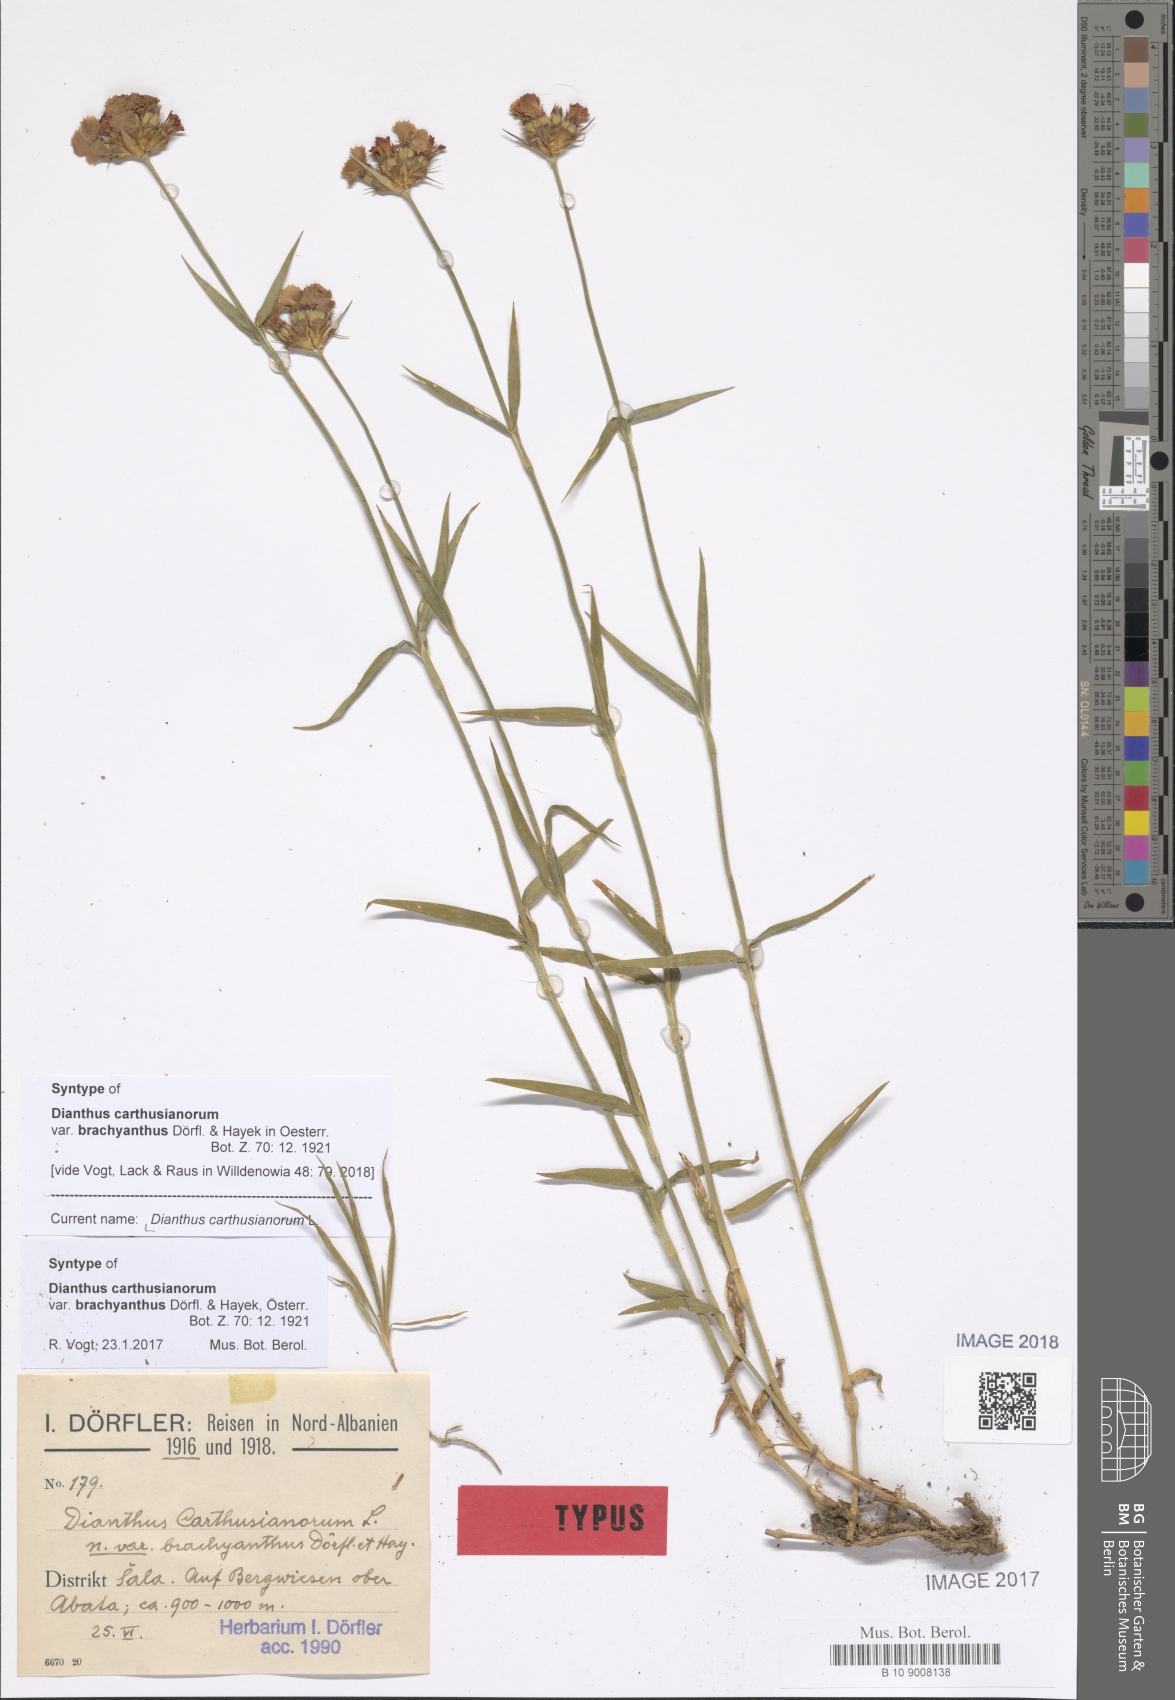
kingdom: Plantae
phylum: Tracheophyta
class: Magnoliopsida
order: Caryophyllales
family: Caryophyllaceae
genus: Dianthus
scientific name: Dianthus carthusianorum
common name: Carthusian pink
